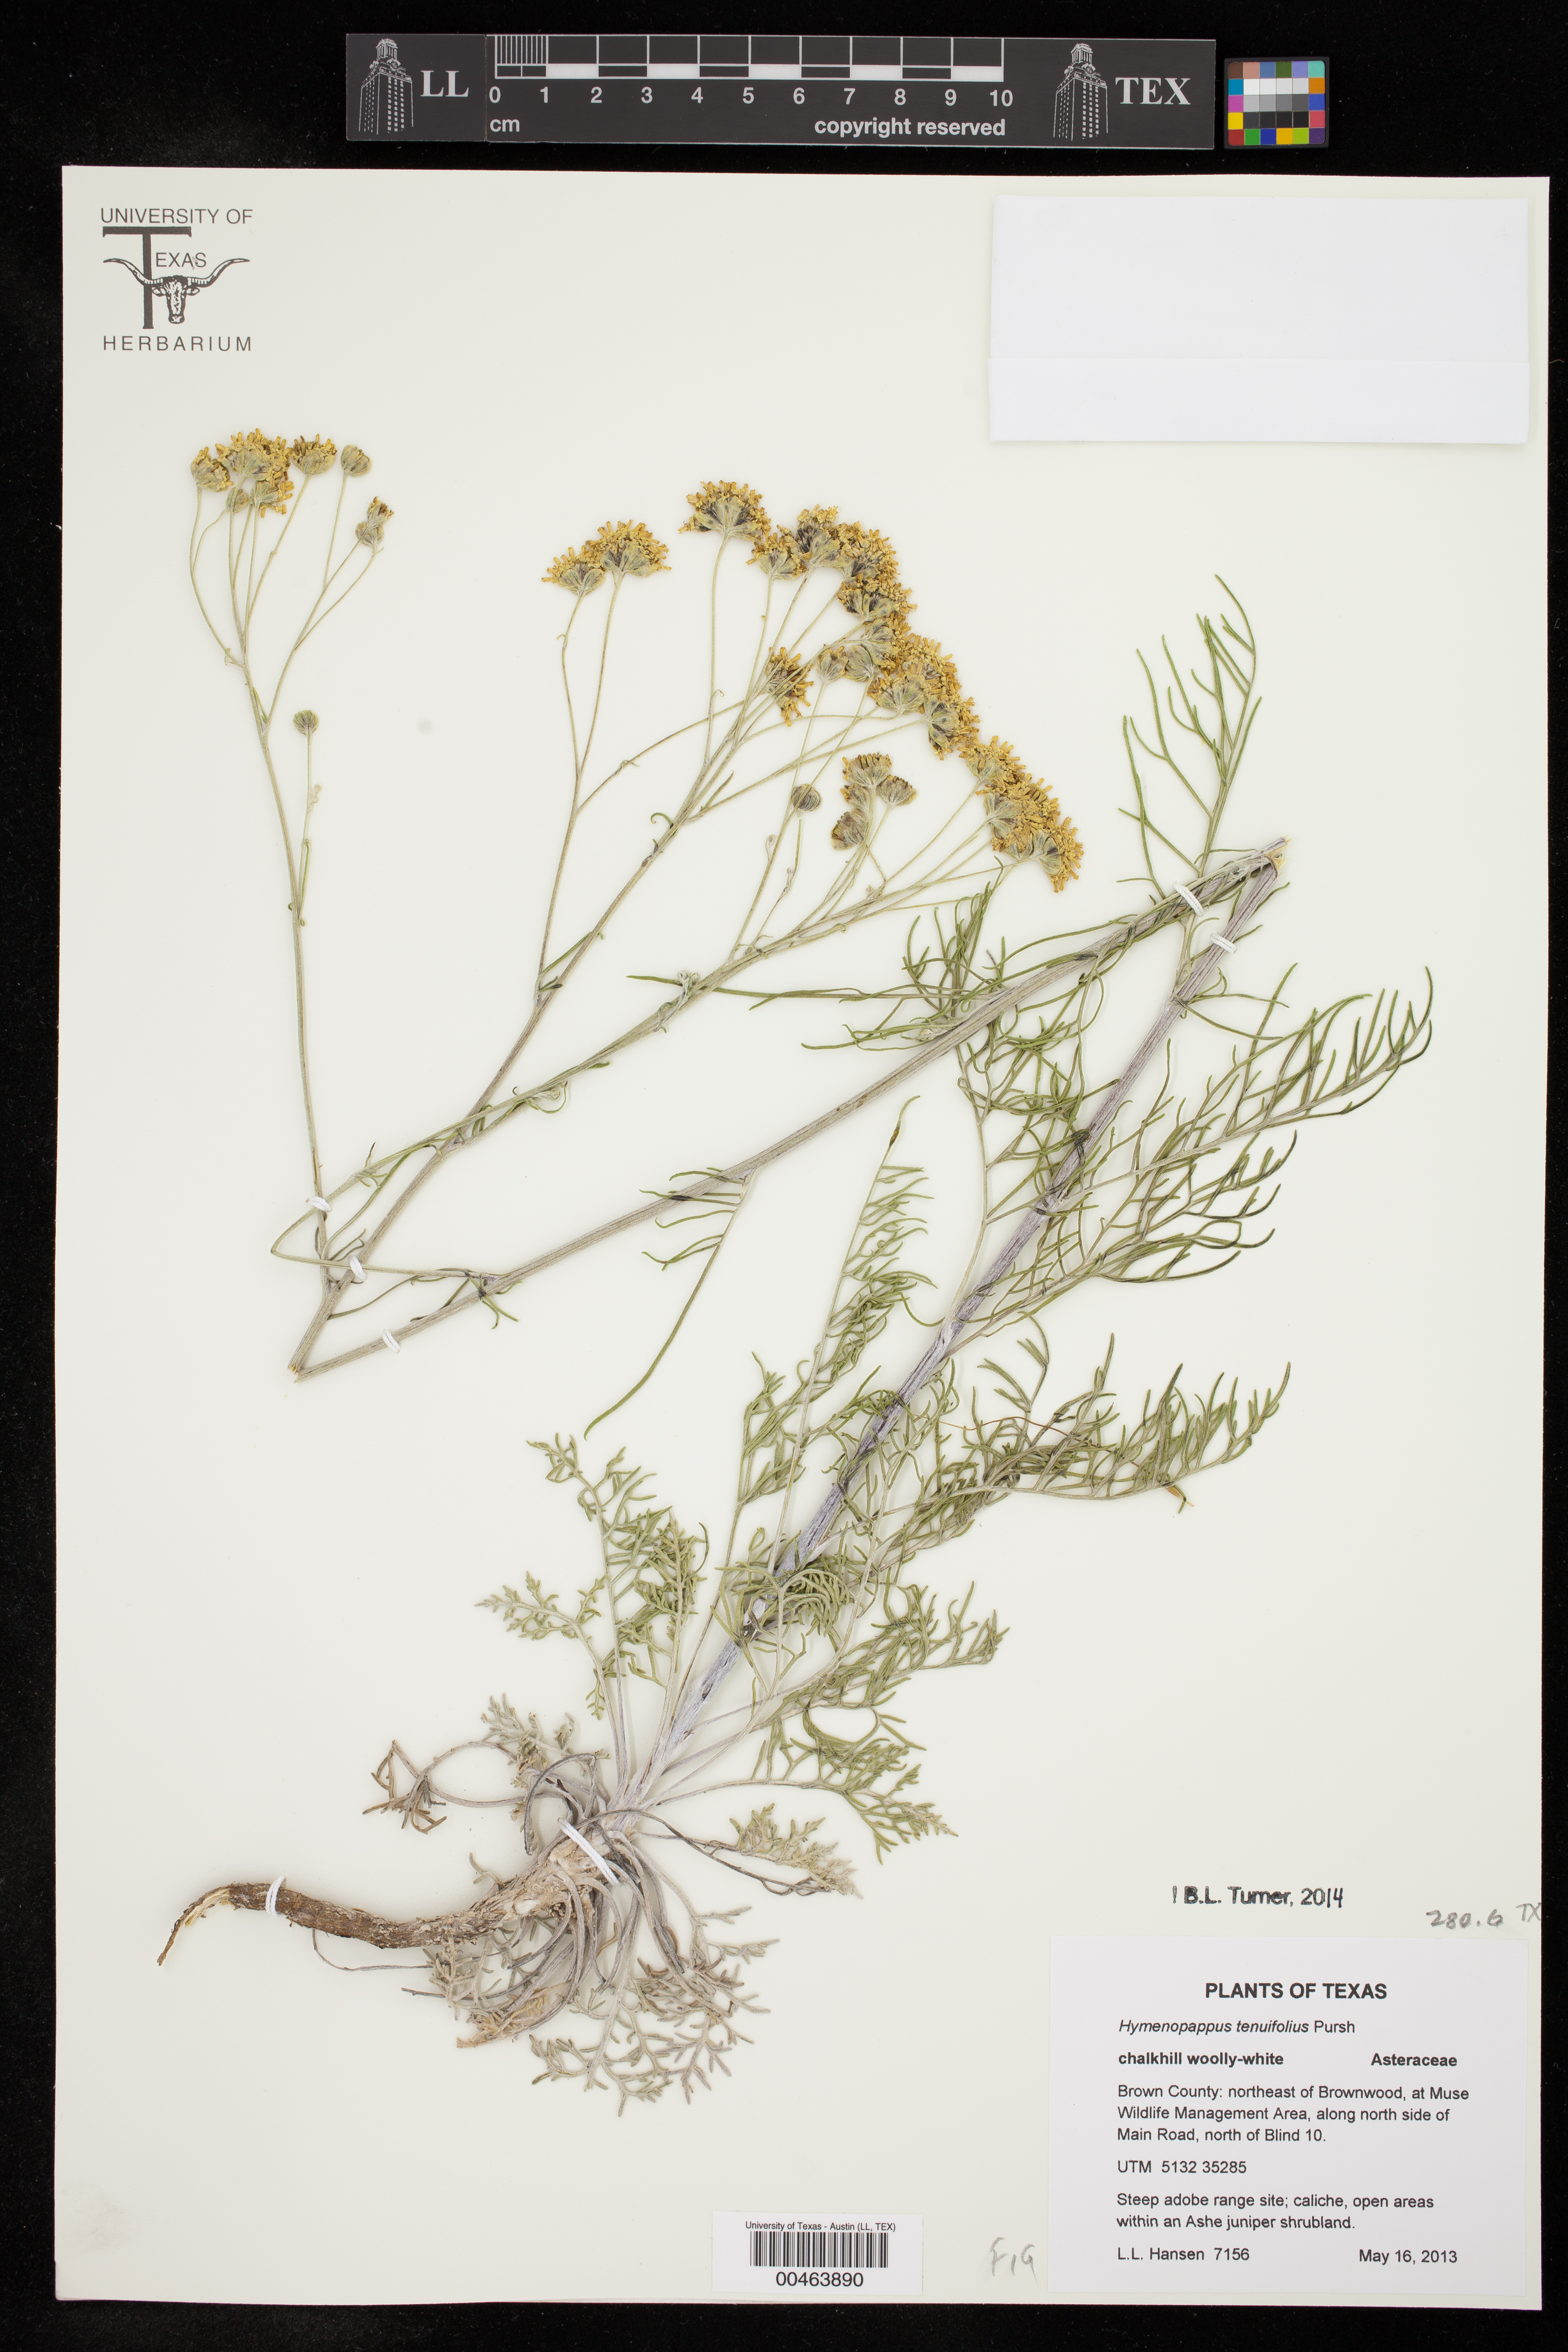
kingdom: Plantae
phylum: Tracheophyta
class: Magnoliopsida
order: Asterales
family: Asteraceae
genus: Hymenopappus
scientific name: Hymenopappus tenuifolius
